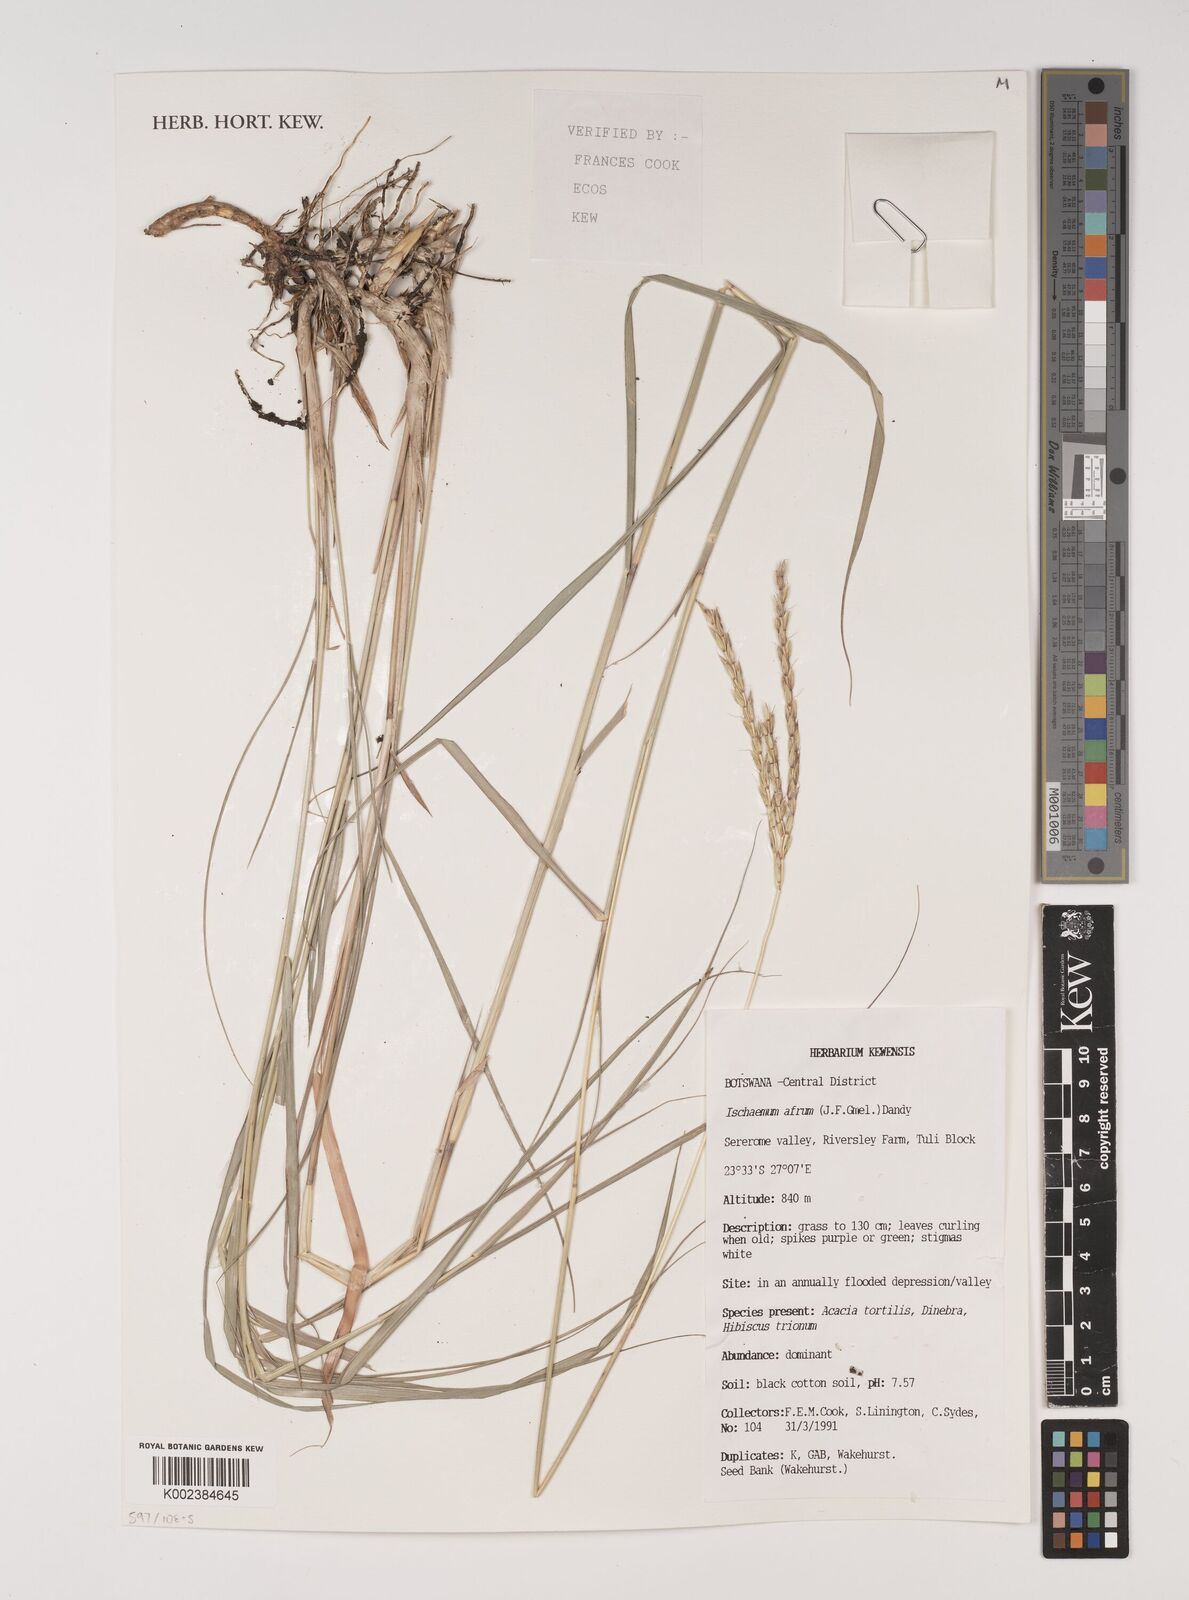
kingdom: Plantae
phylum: Tracheophyta
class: Liliopsida
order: Poales
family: Poaceae
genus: Ischaemum
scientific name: Ischaemum afrum
